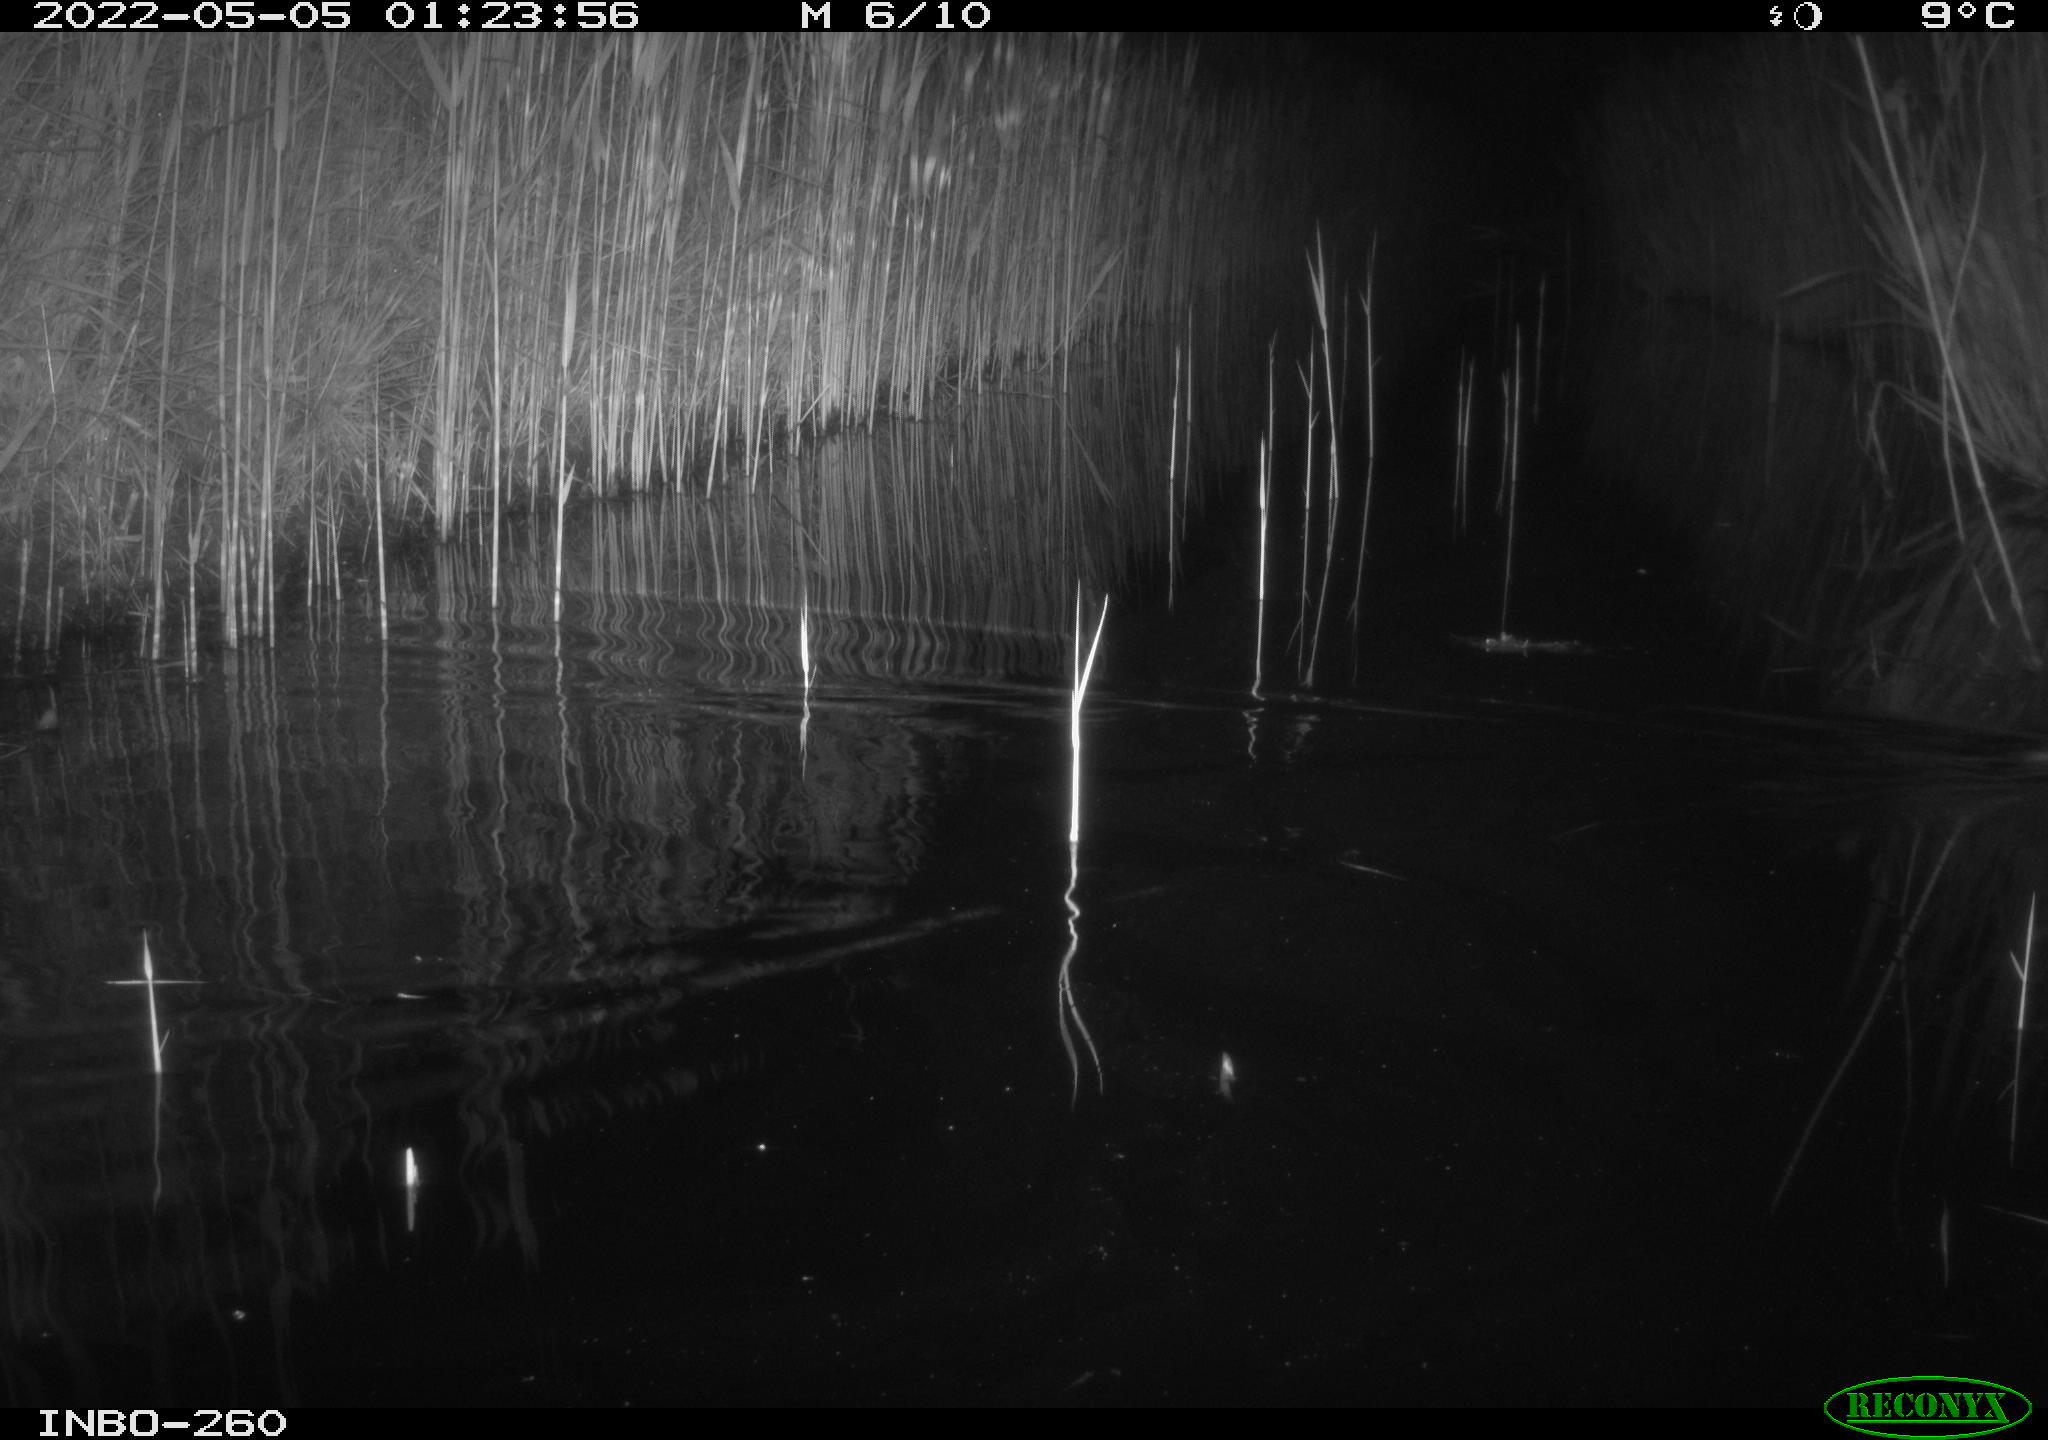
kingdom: Animalia
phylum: Chordata
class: Mammalia
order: Rodentia
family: Muridae
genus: Rattus
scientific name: Rattus norvegicus
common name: Brown rat
